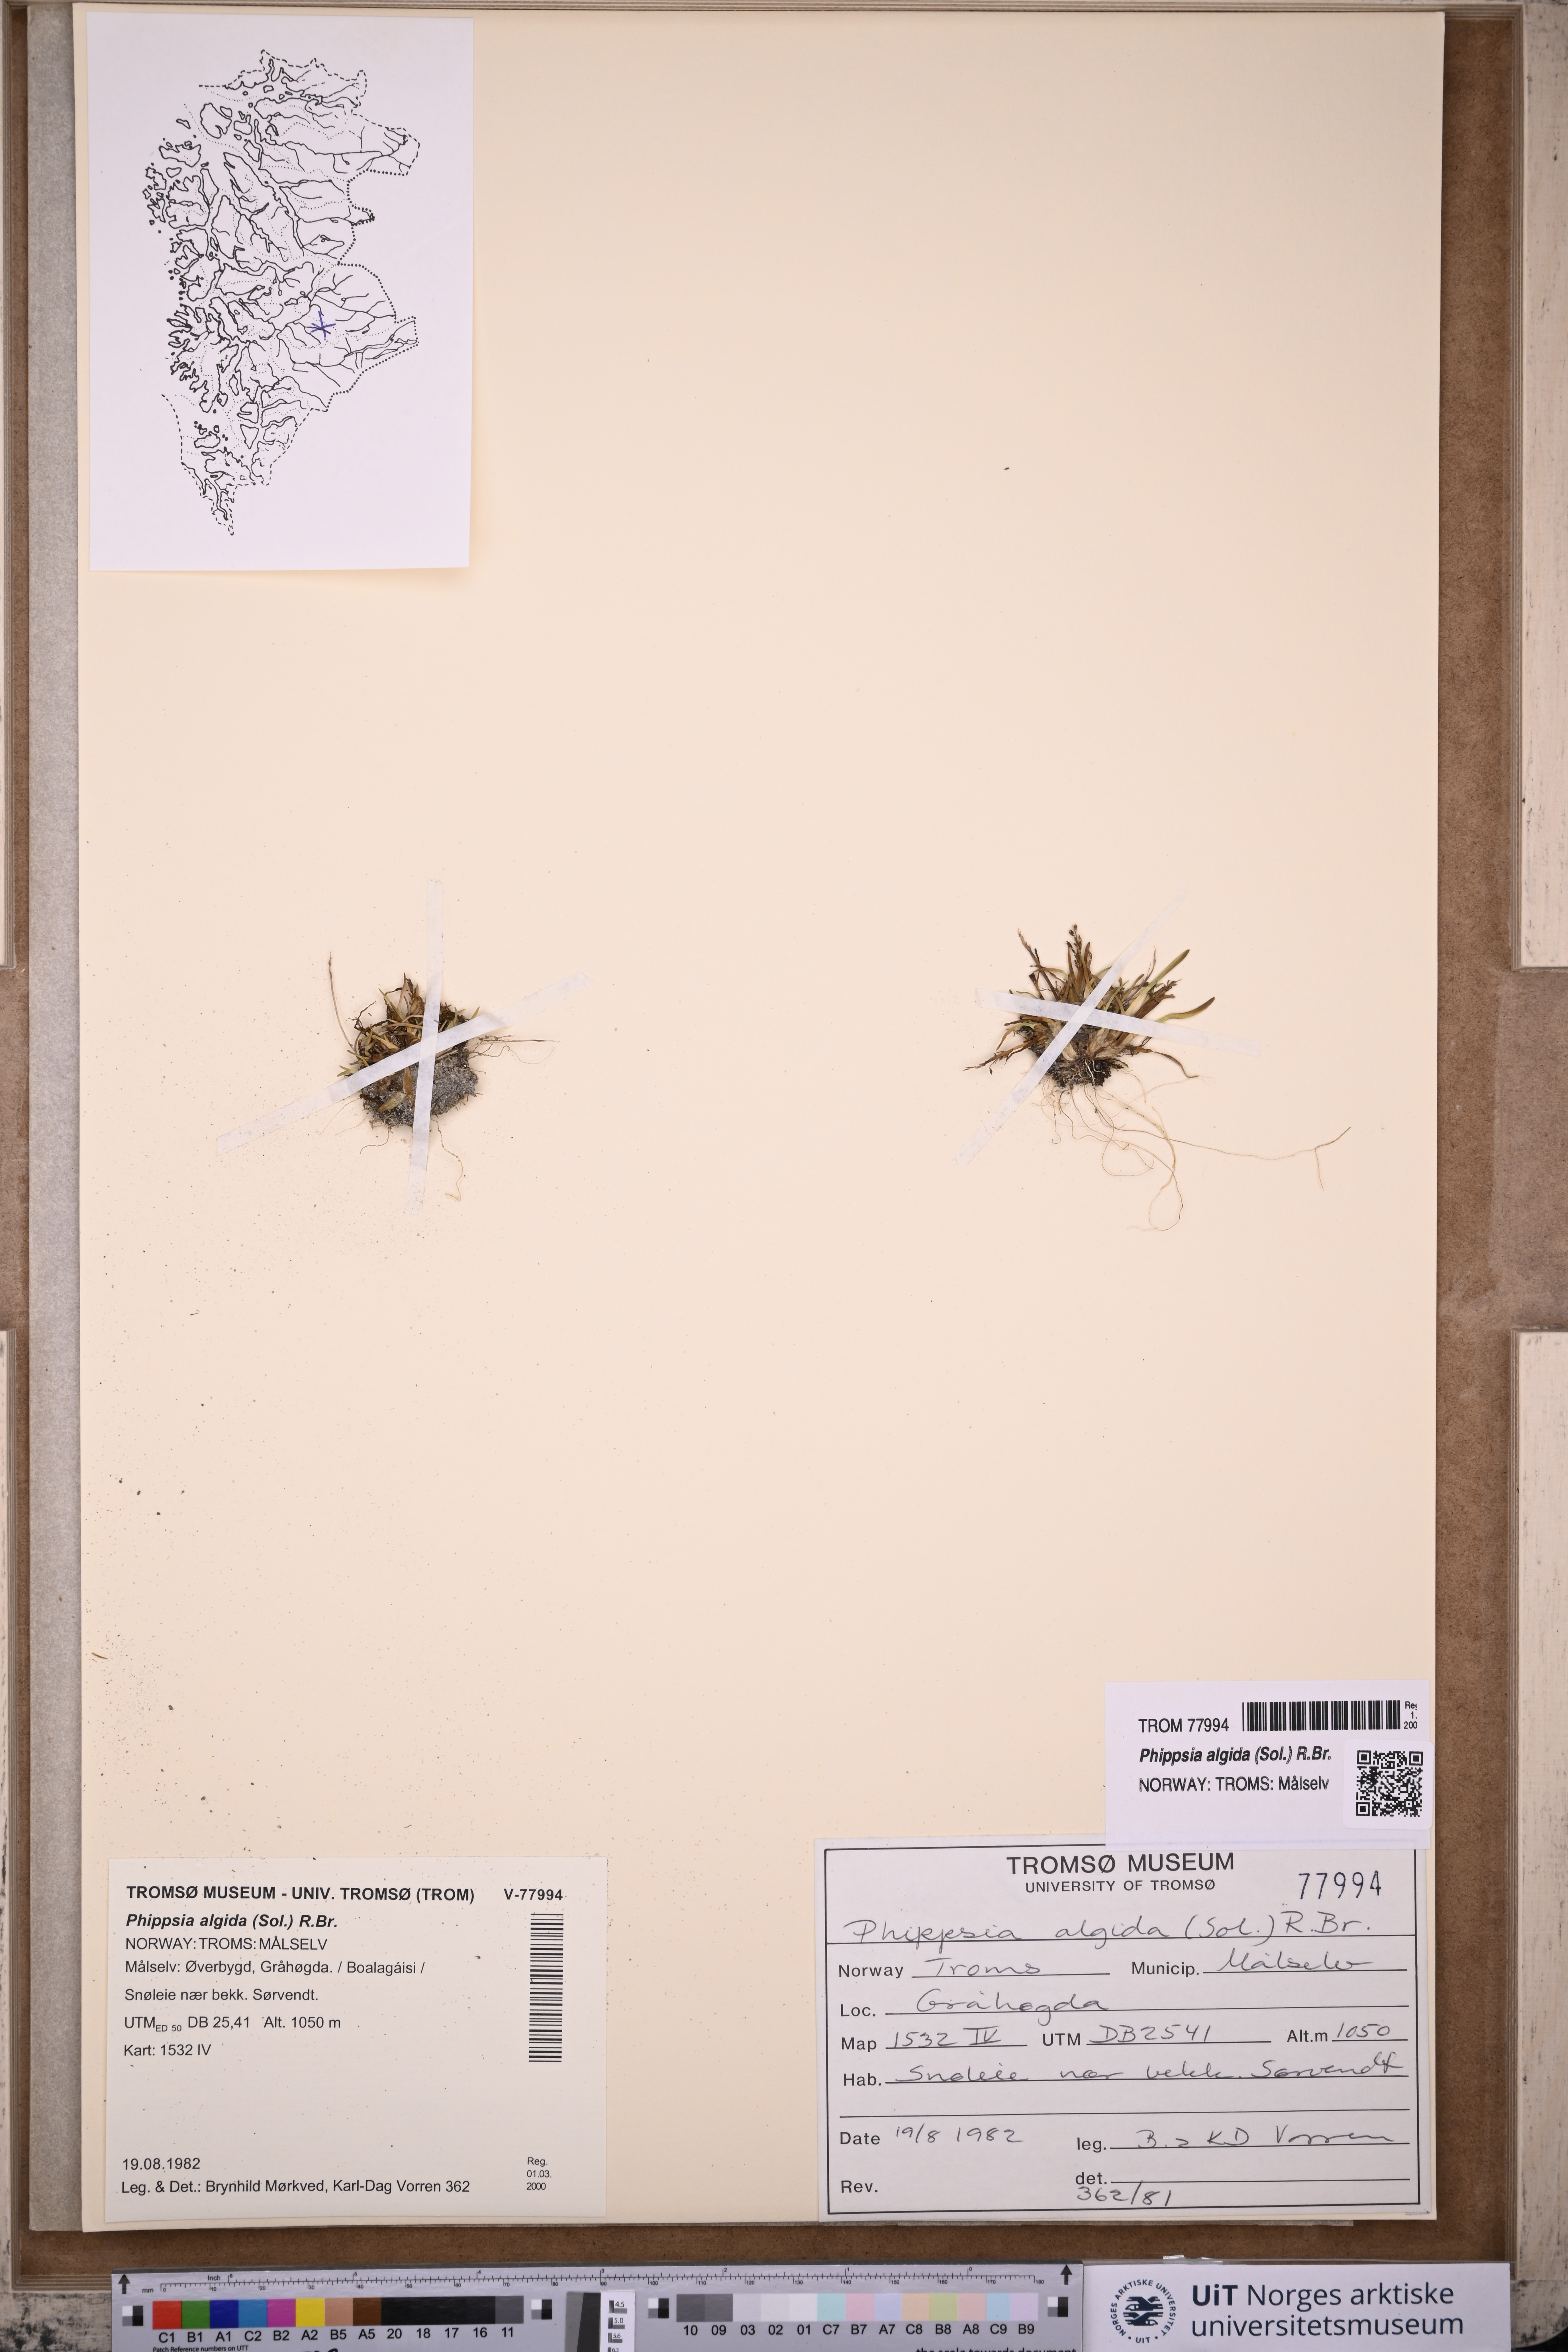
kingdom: Plantae
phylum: Tracheophyta
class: Liliopsida
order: Poales
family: Poaceae
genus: Phippsia
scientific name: Phippsia algida
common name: Ice grass
